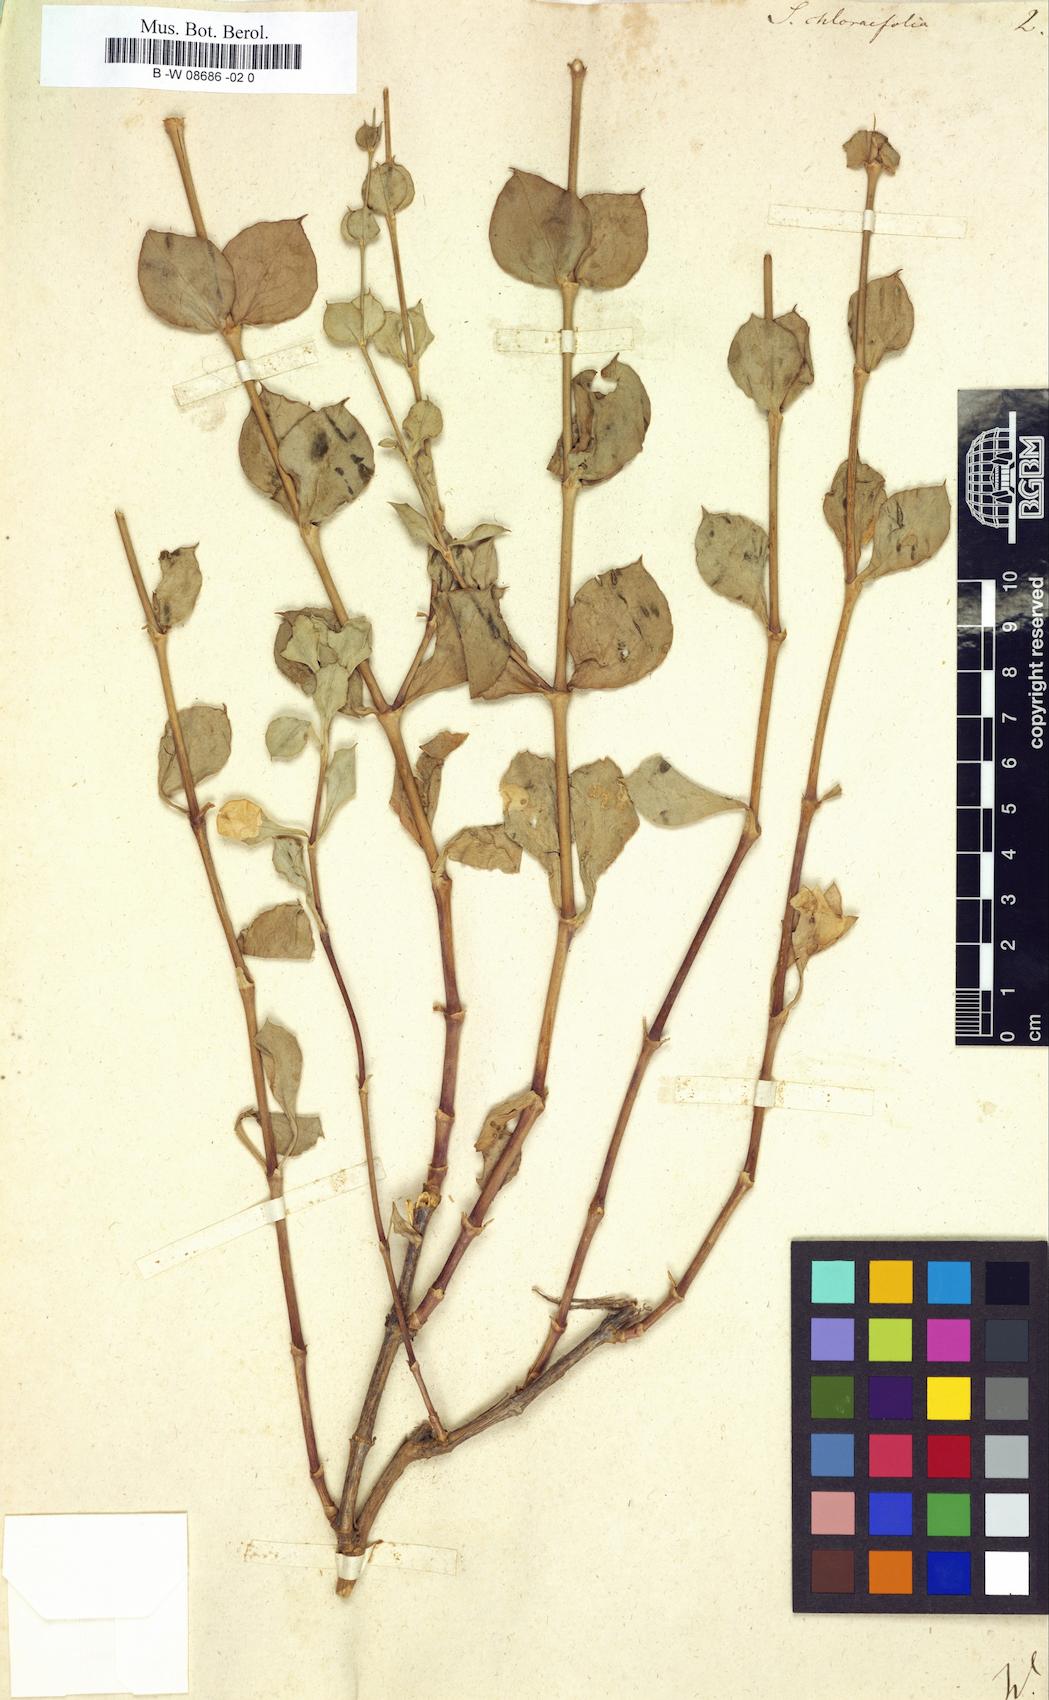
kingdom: Plantae
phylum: Tracheophyta
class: Magnoliopsida
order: Caryophyllales
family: Caryophyllaceae
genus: Silene
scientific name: Silene chlorifolia
